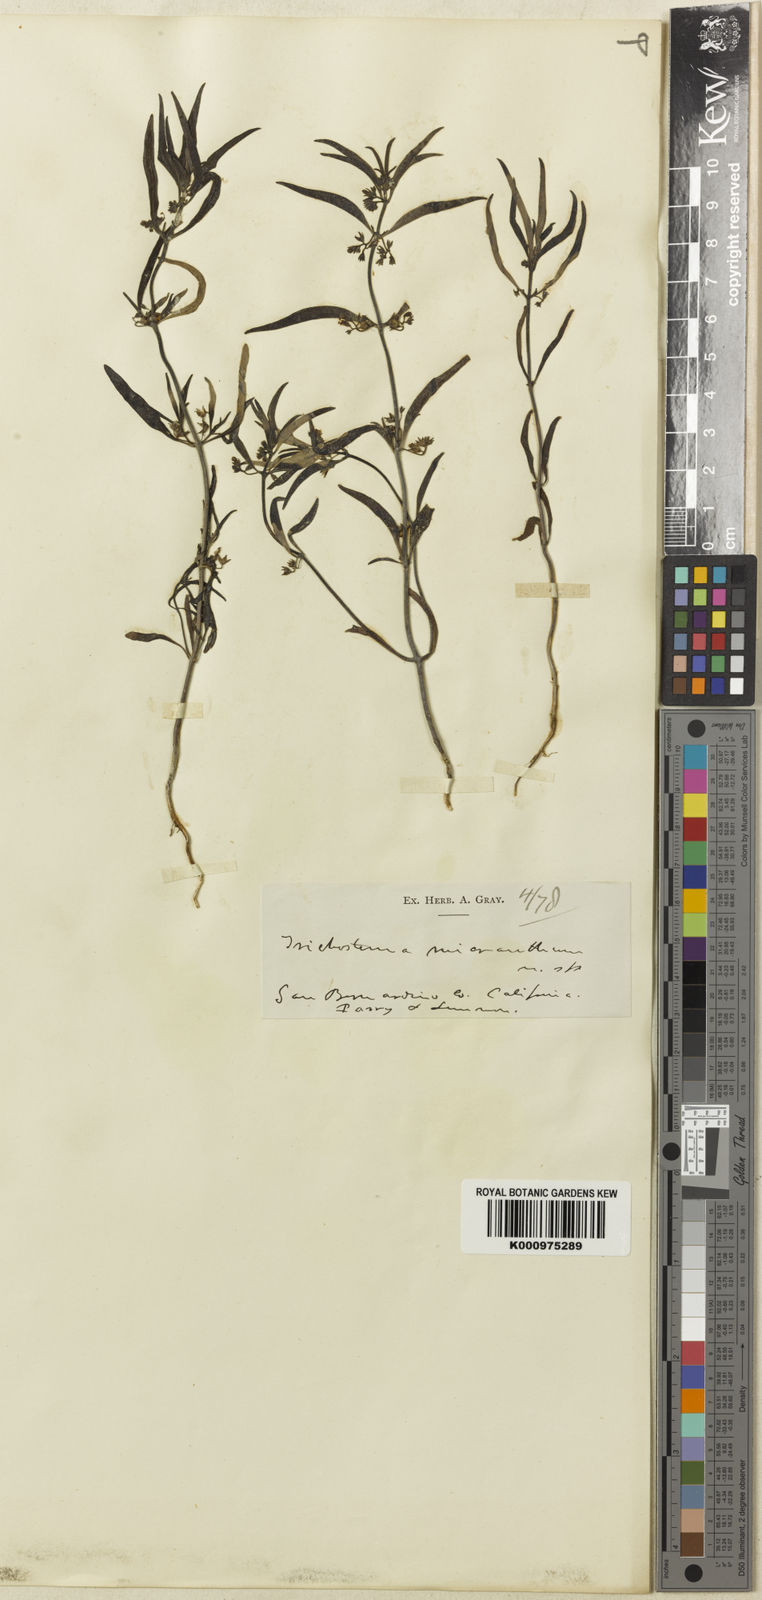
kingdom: Plantae
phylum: Tracheophyta
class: Magnoliopsida
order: Lamiales
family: Lamiaceae
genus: Trichostema
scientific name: Trichostema micranthum
